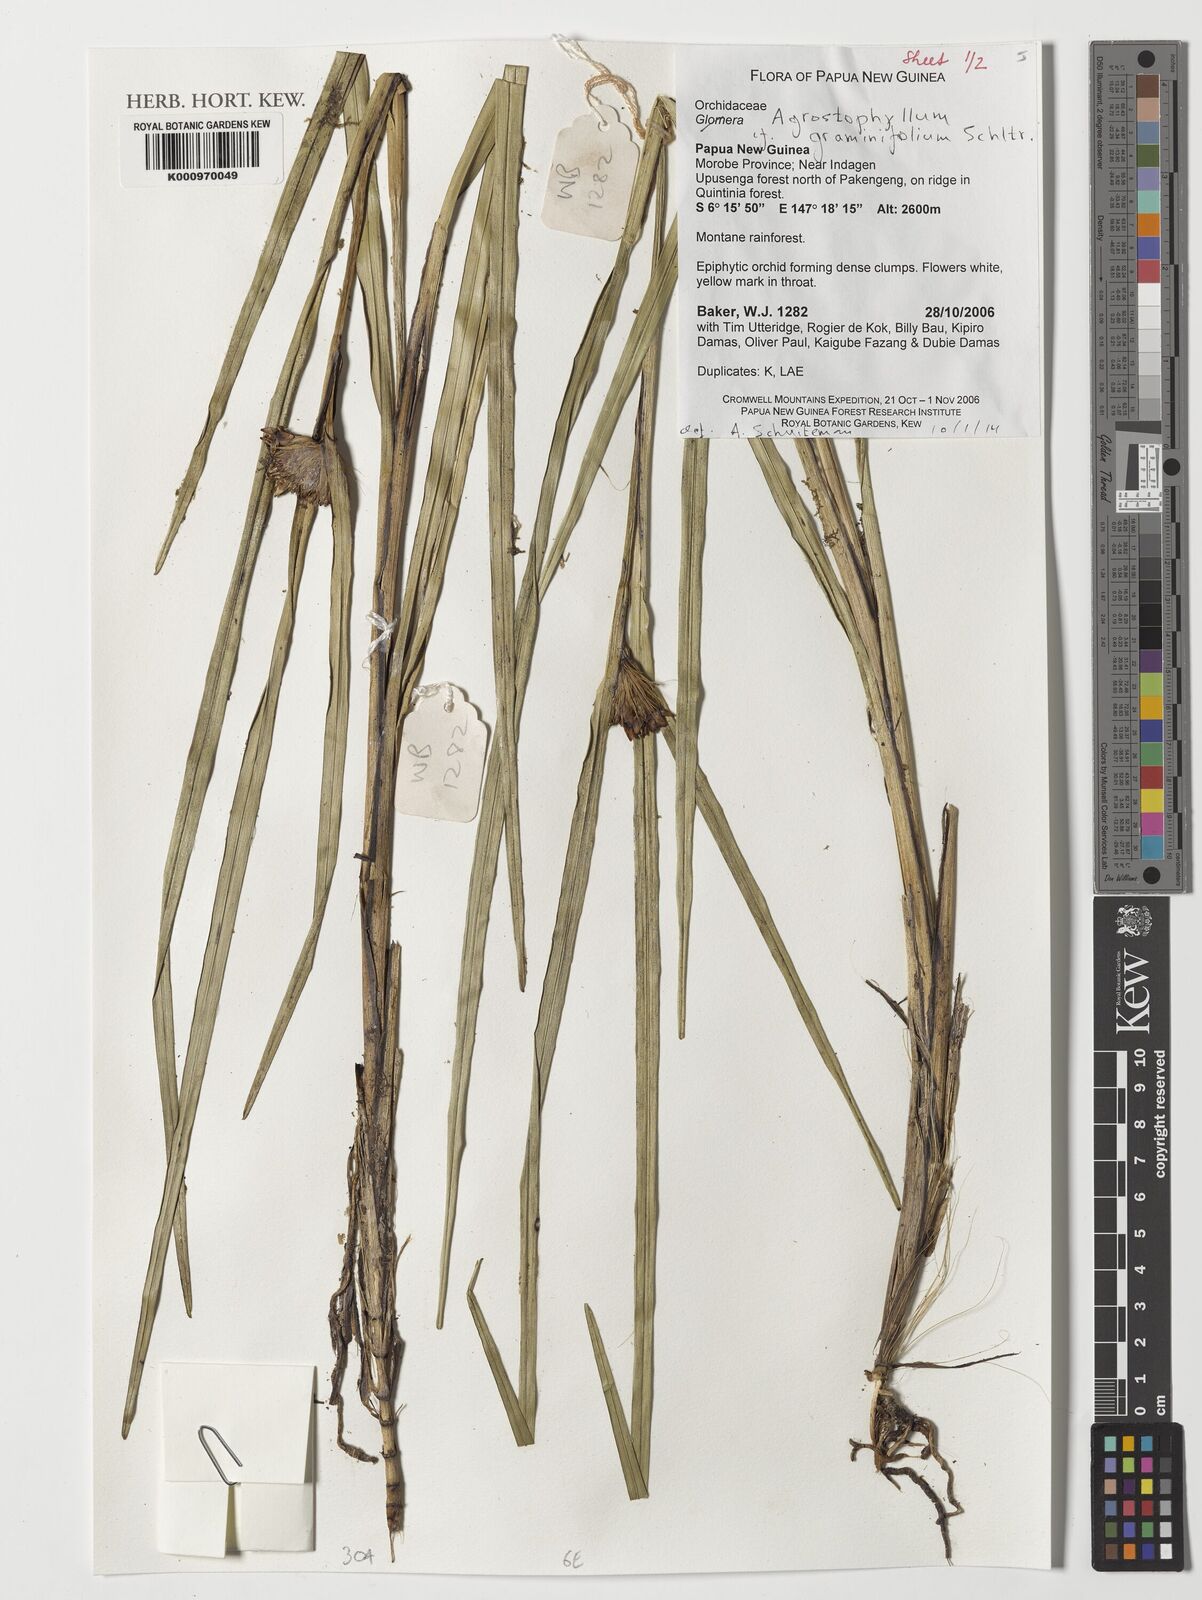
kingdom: Plantae
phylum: Tracheophyta
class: Liliopsida
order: Asparagales
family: Orchidaceae
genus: Agrostophyllum
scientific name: Agrostophyllum graminifolium
